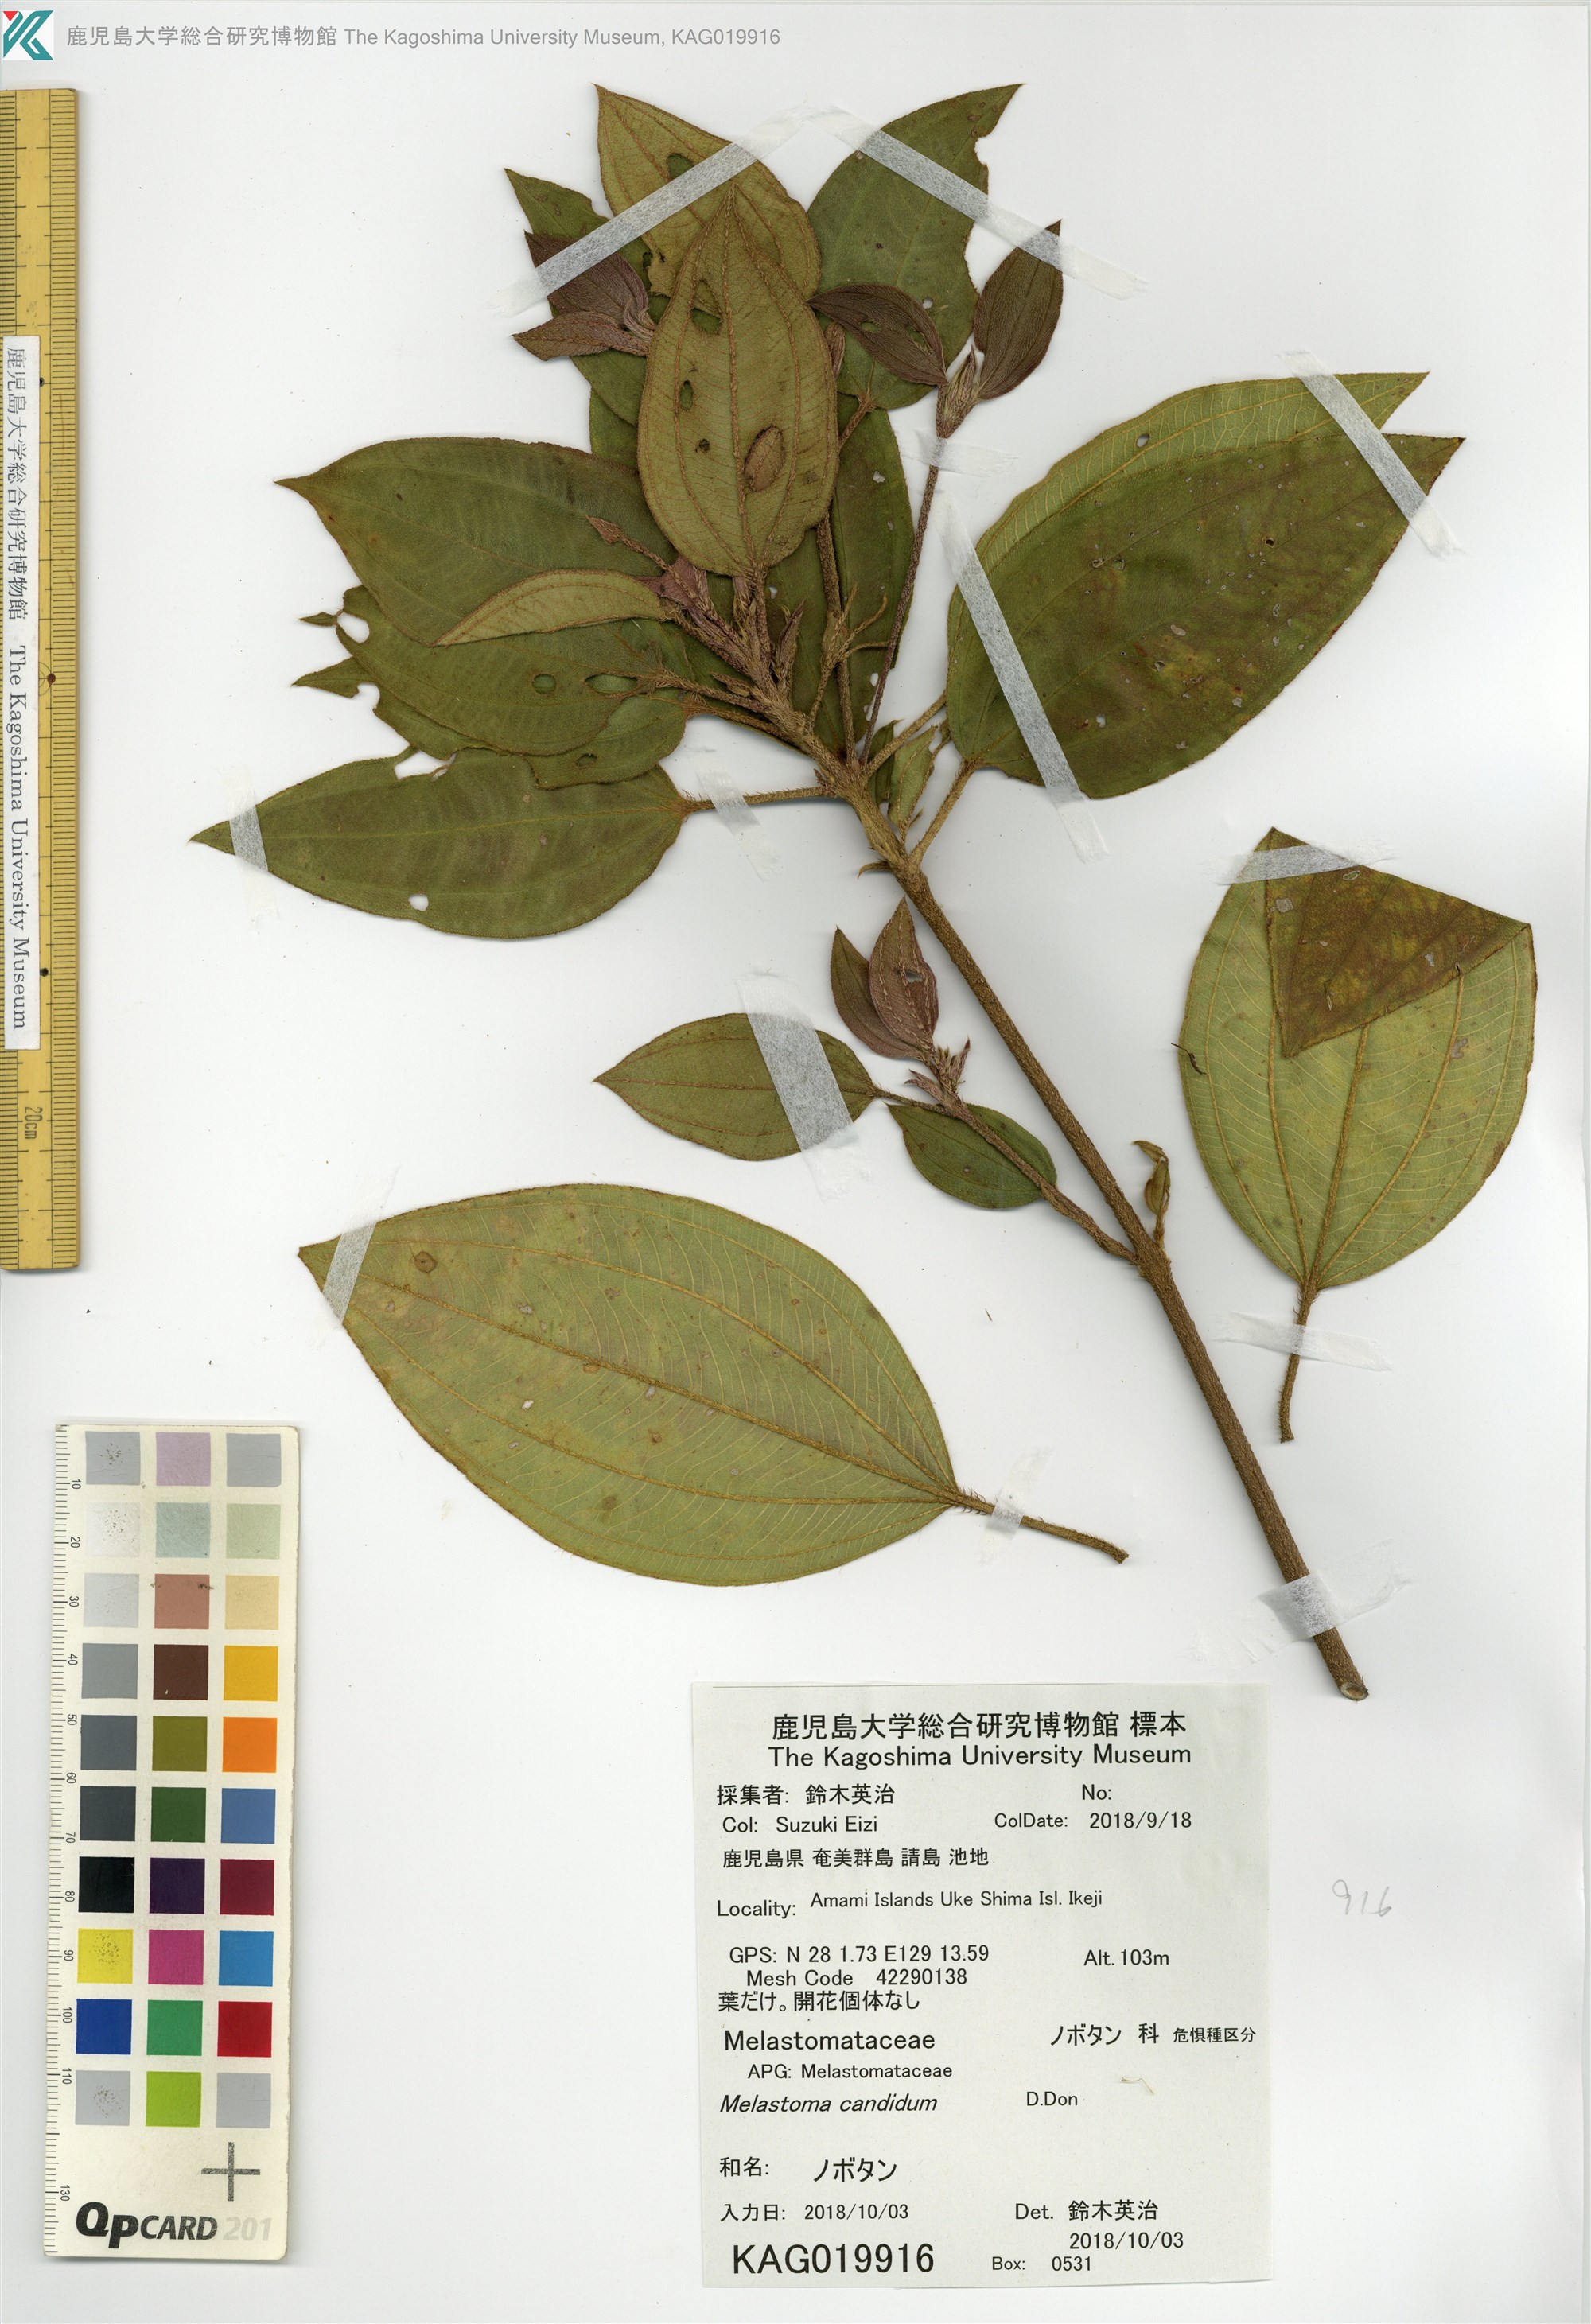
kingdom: Plantae
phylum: Tracheophyta
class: Magnoliopsida
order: Myrtales
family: Melastomataceae
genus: Melastoma
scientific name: Melastoma malabathricum
